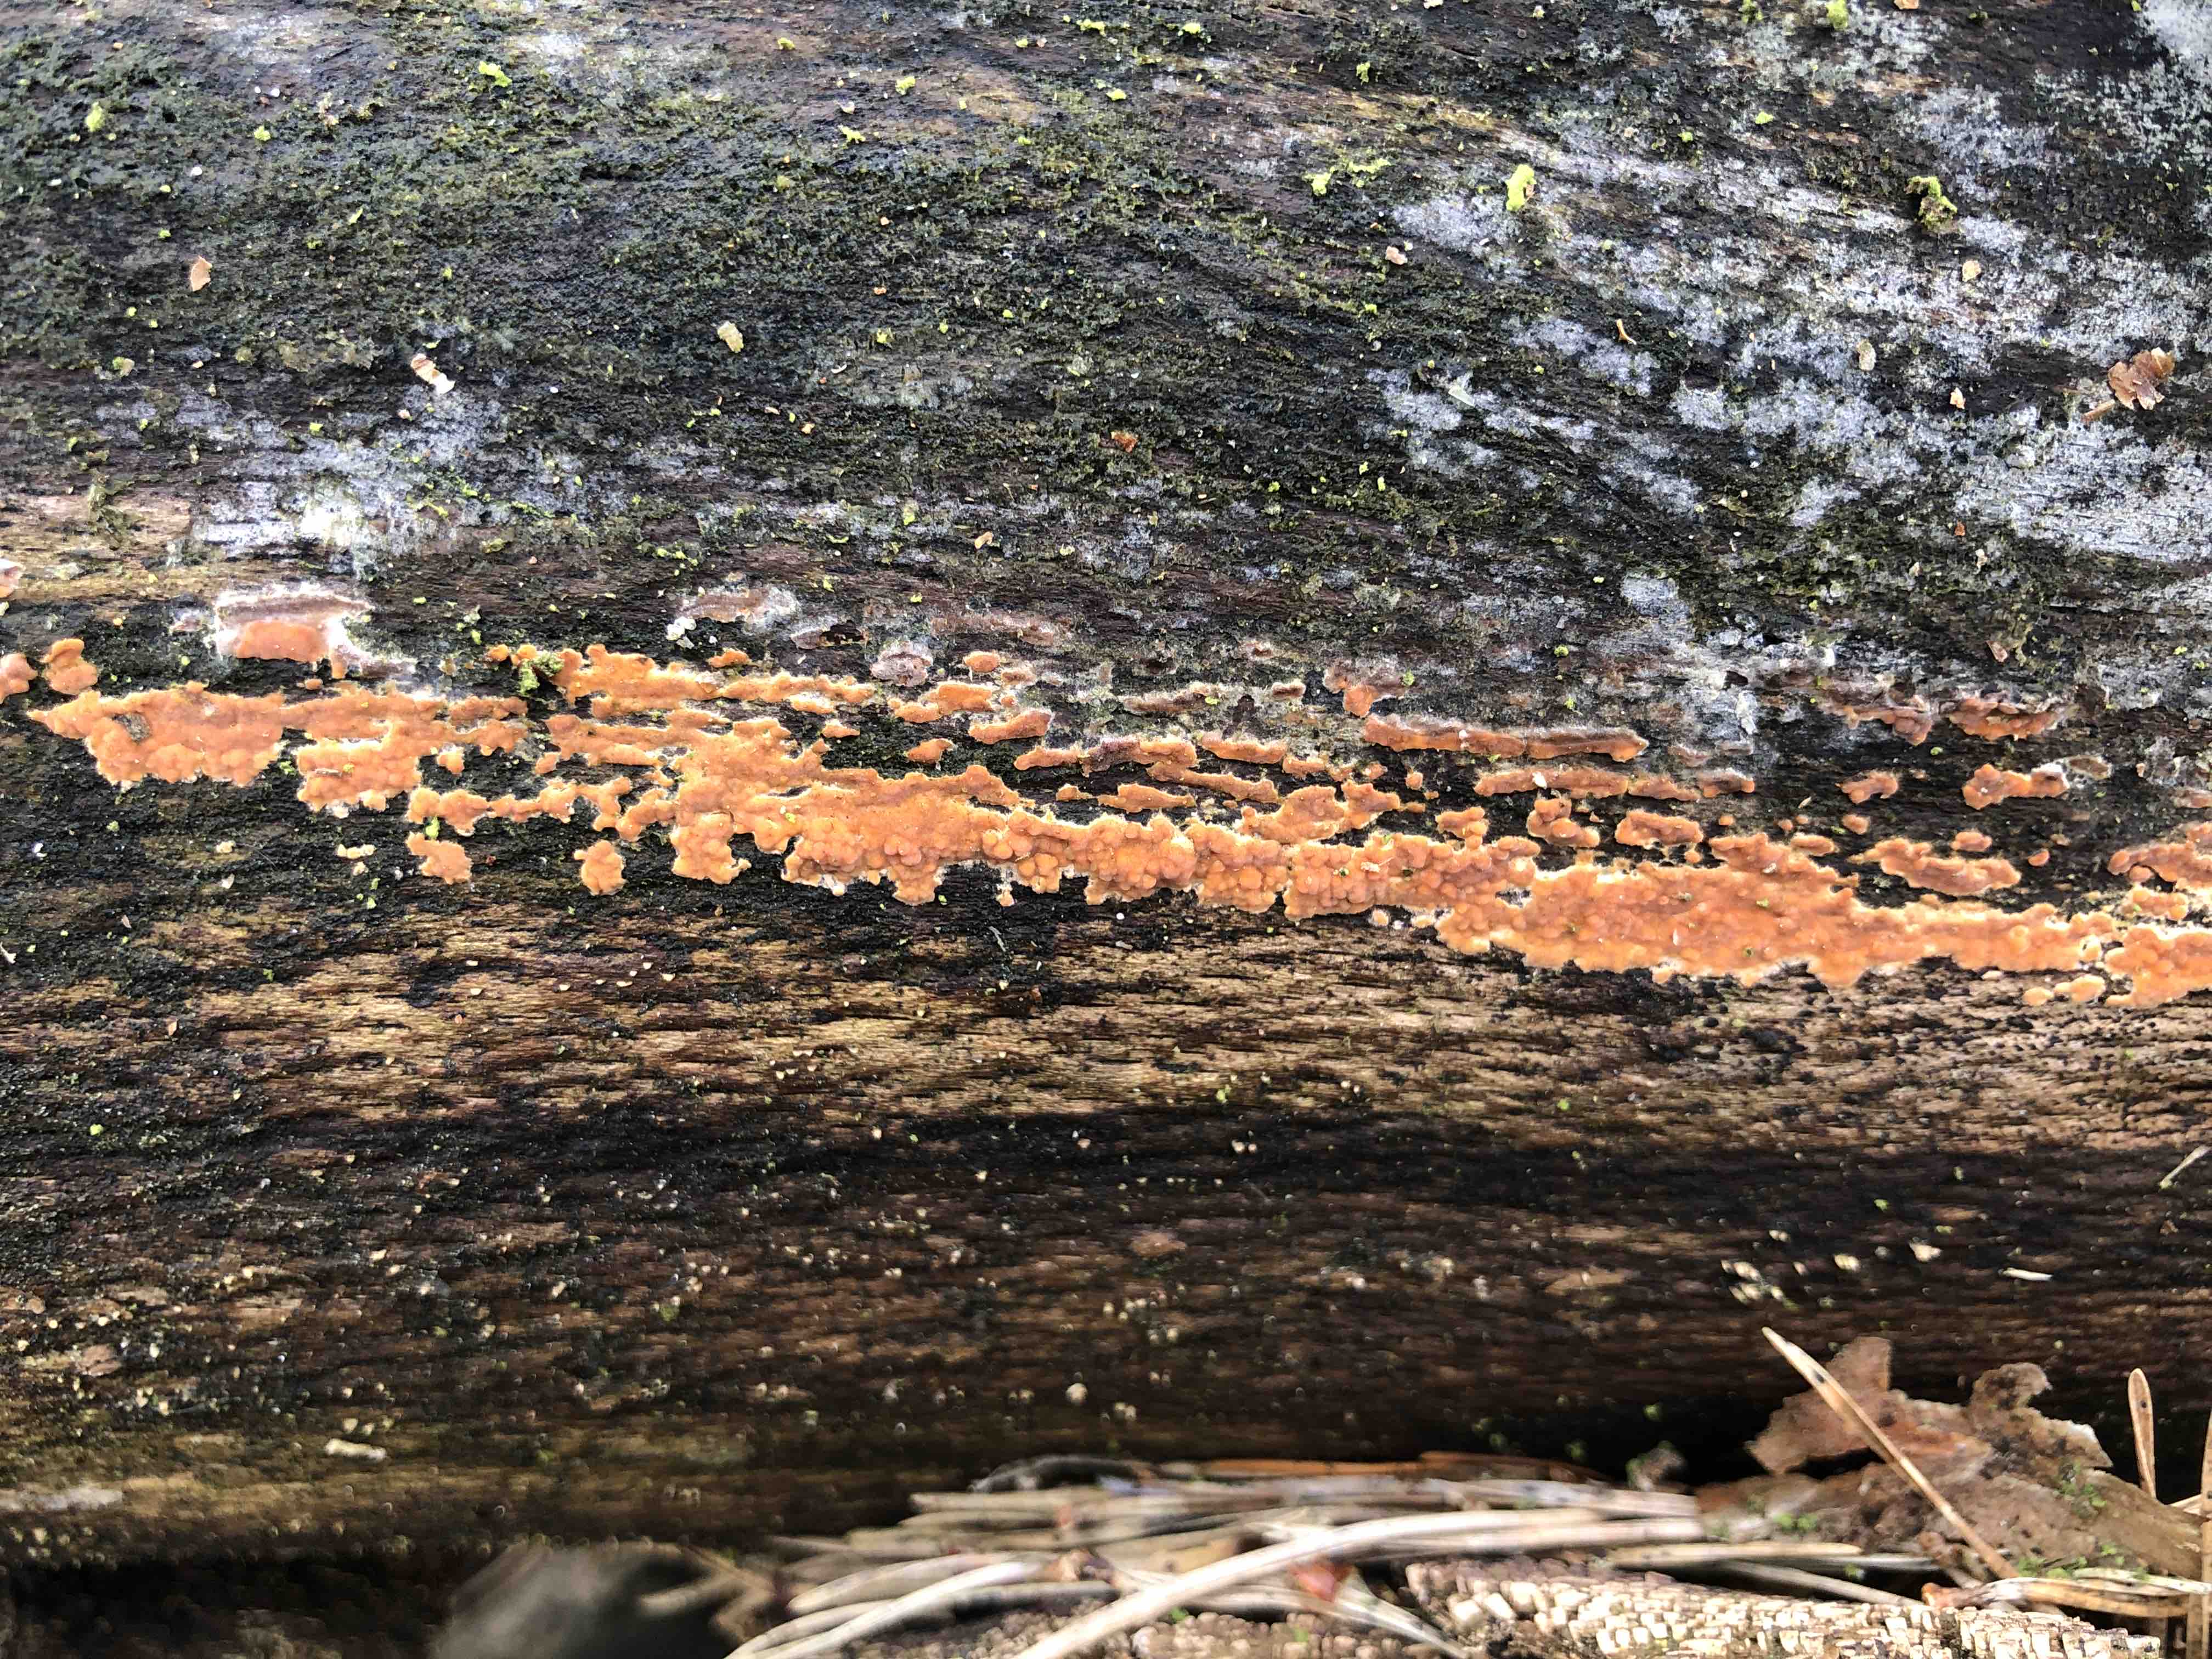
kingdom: Fungi
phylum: Basidiomycota
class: Agaricomycetes
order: Russulales
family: Peniophoraceae
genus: Peniophora
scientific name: Peniophora incarnata
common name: laksefarvet voksskind
